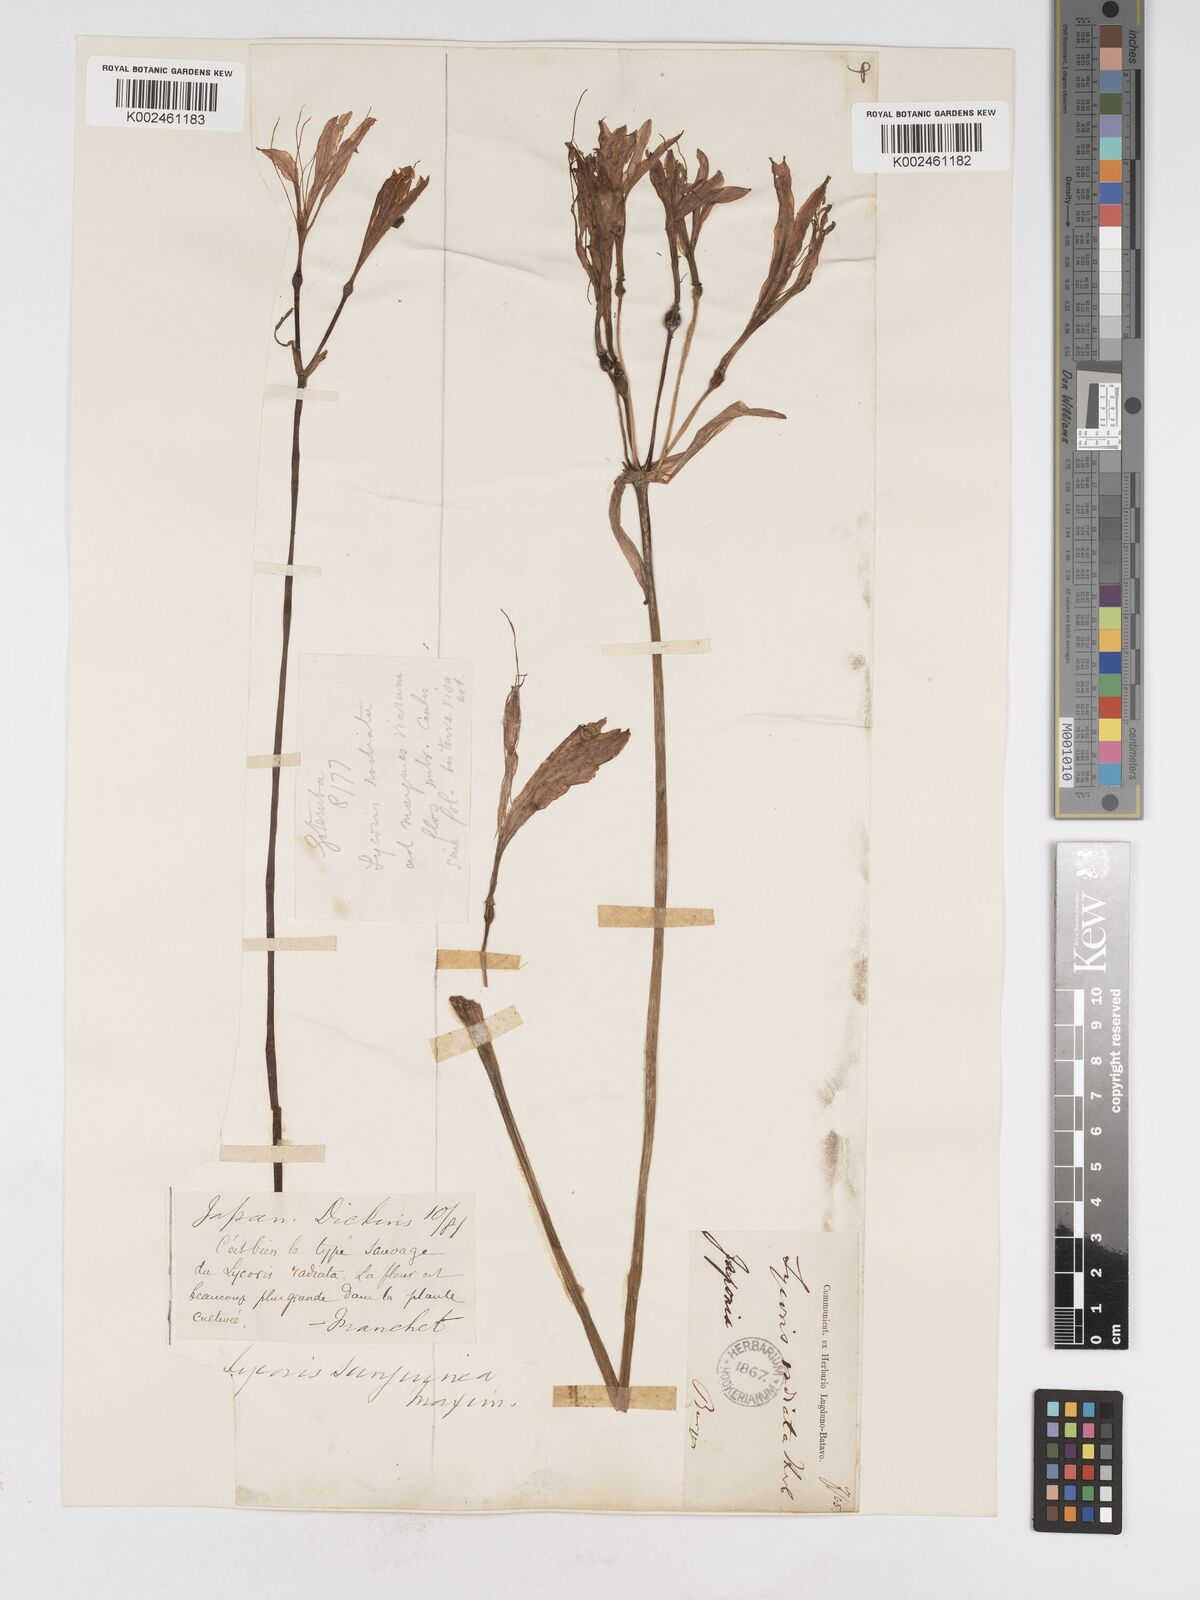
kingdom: Plantae
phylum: Tracheophyta
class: Liliopsida
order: Asparagales
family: Amaryllidaceae
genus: Lycoris
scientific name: Lycoris sanguinea
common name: Spider-lily
